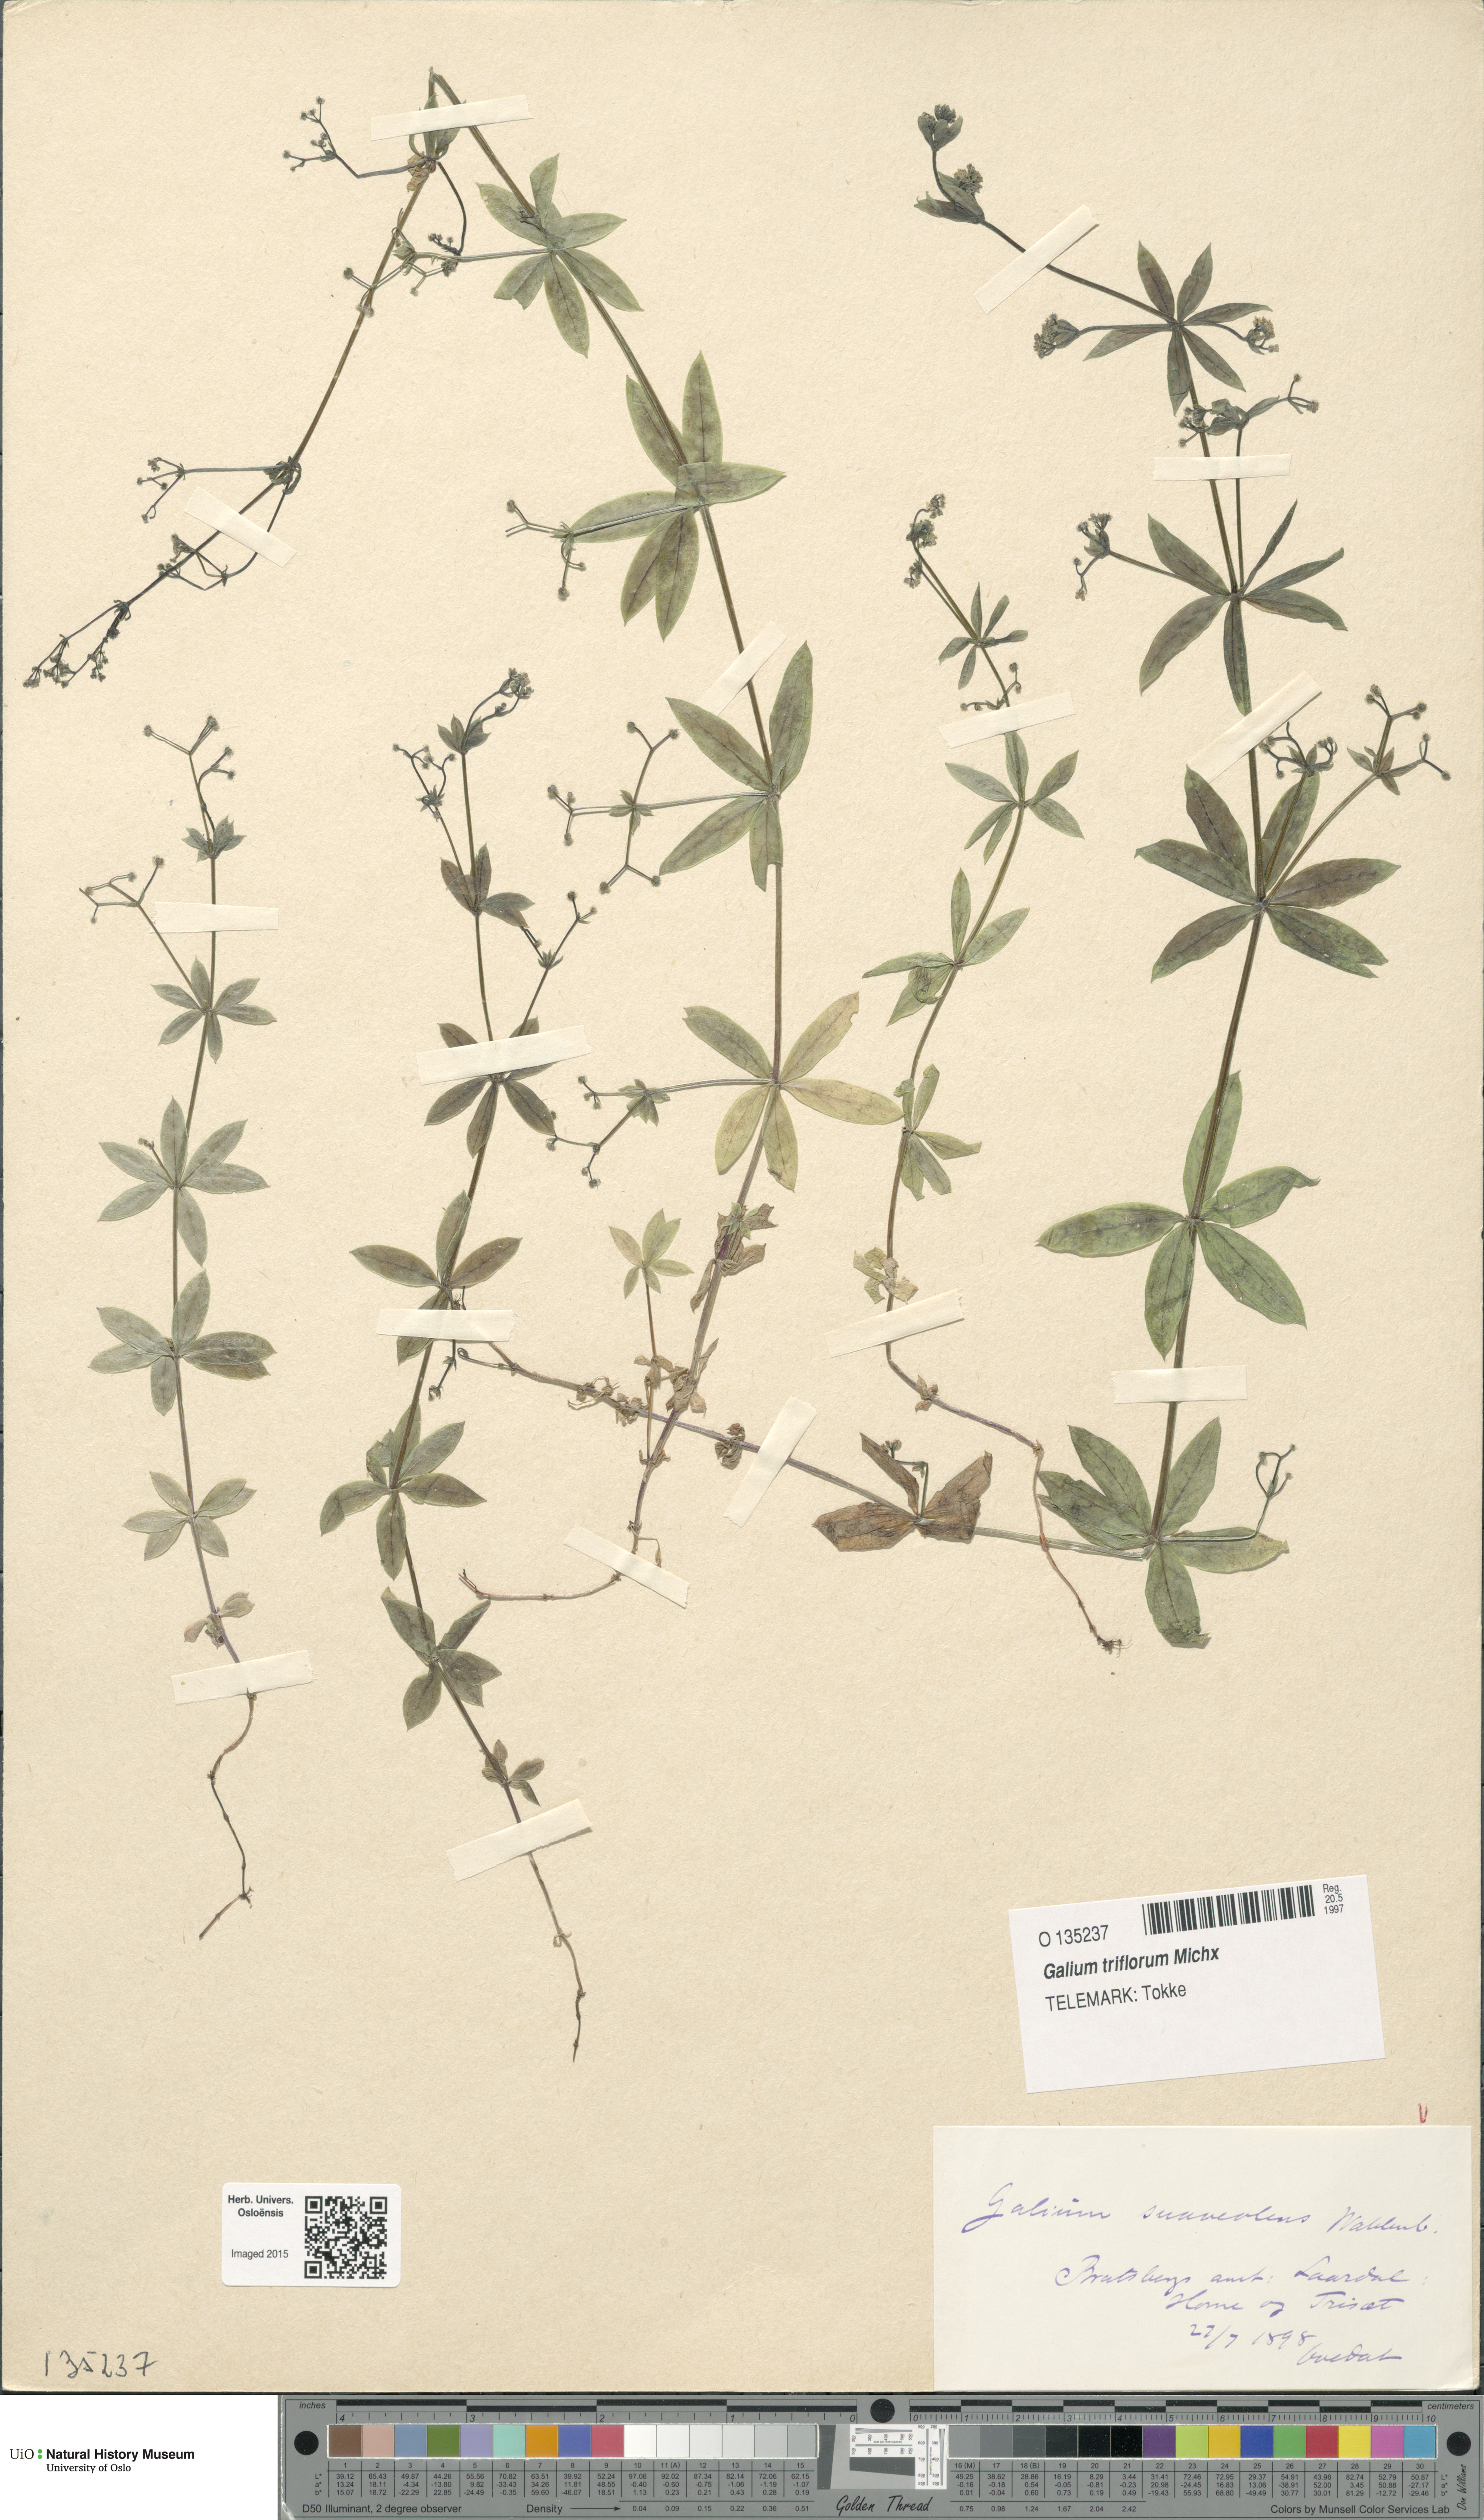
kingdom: Plantae
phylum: Tracheophyta
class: Magnoliopsida
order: Gentianales
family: Rubiaceae
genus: Galium
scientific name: Galium triflorum
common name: Fragrant bedstraw
